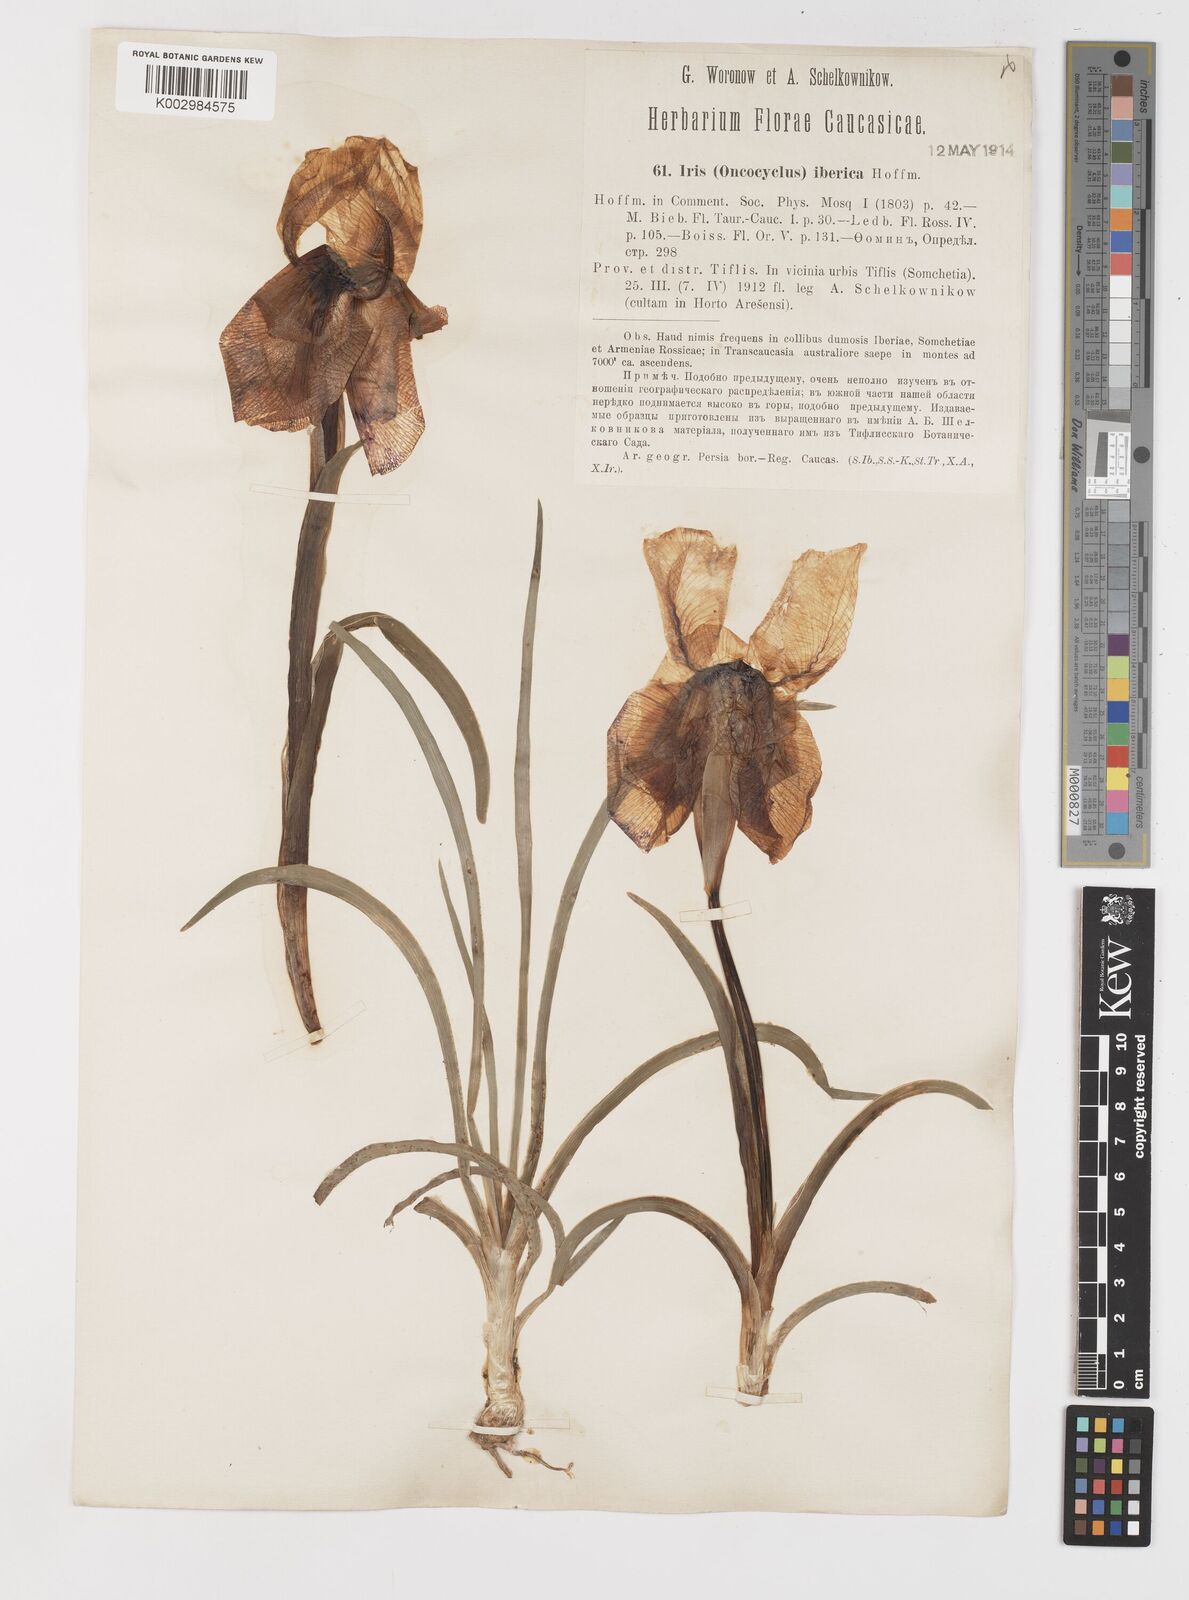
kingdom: Plantae
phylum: Tracheophyta
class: Liliopsida
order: Asparagales
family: Iridaceae
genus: Iris
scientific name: Iris iberica
